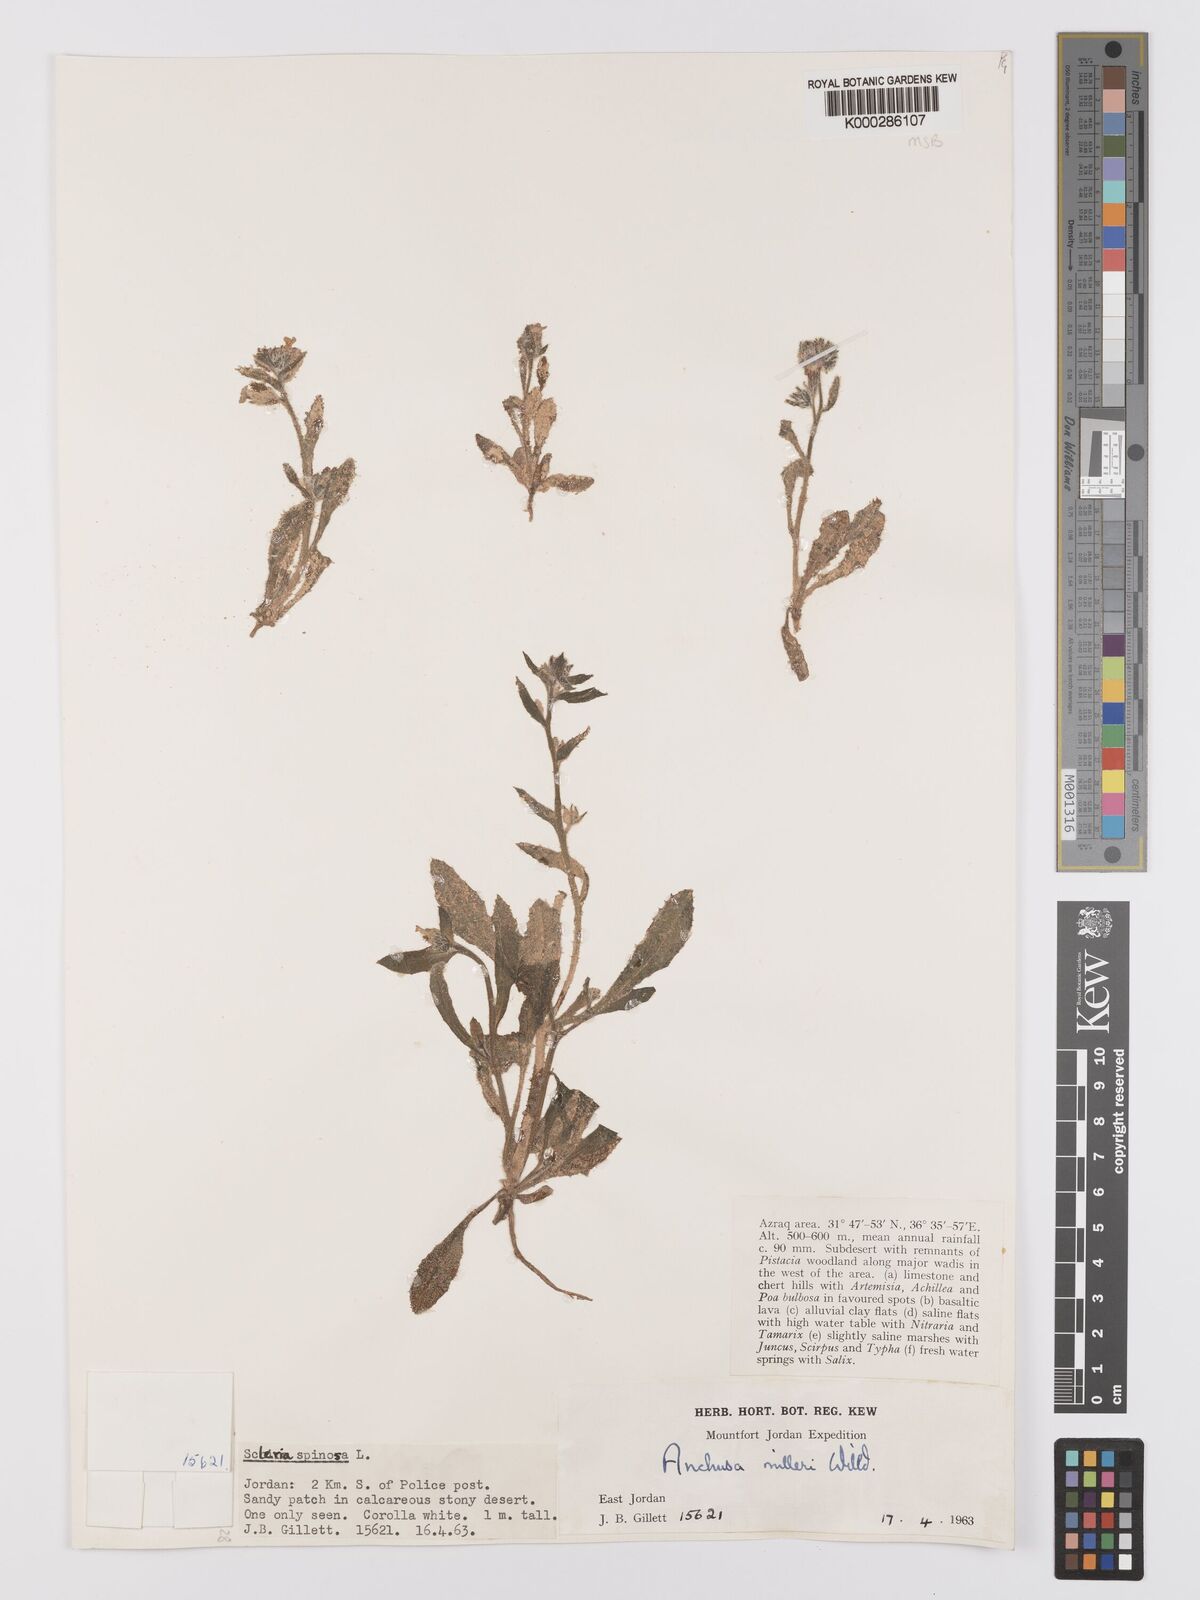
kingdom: Plantae
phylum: Tracheophyta
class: Magnoliopsida
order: Boraginales
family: Boraginaceae
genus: Anchusa
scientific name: Anchusa
